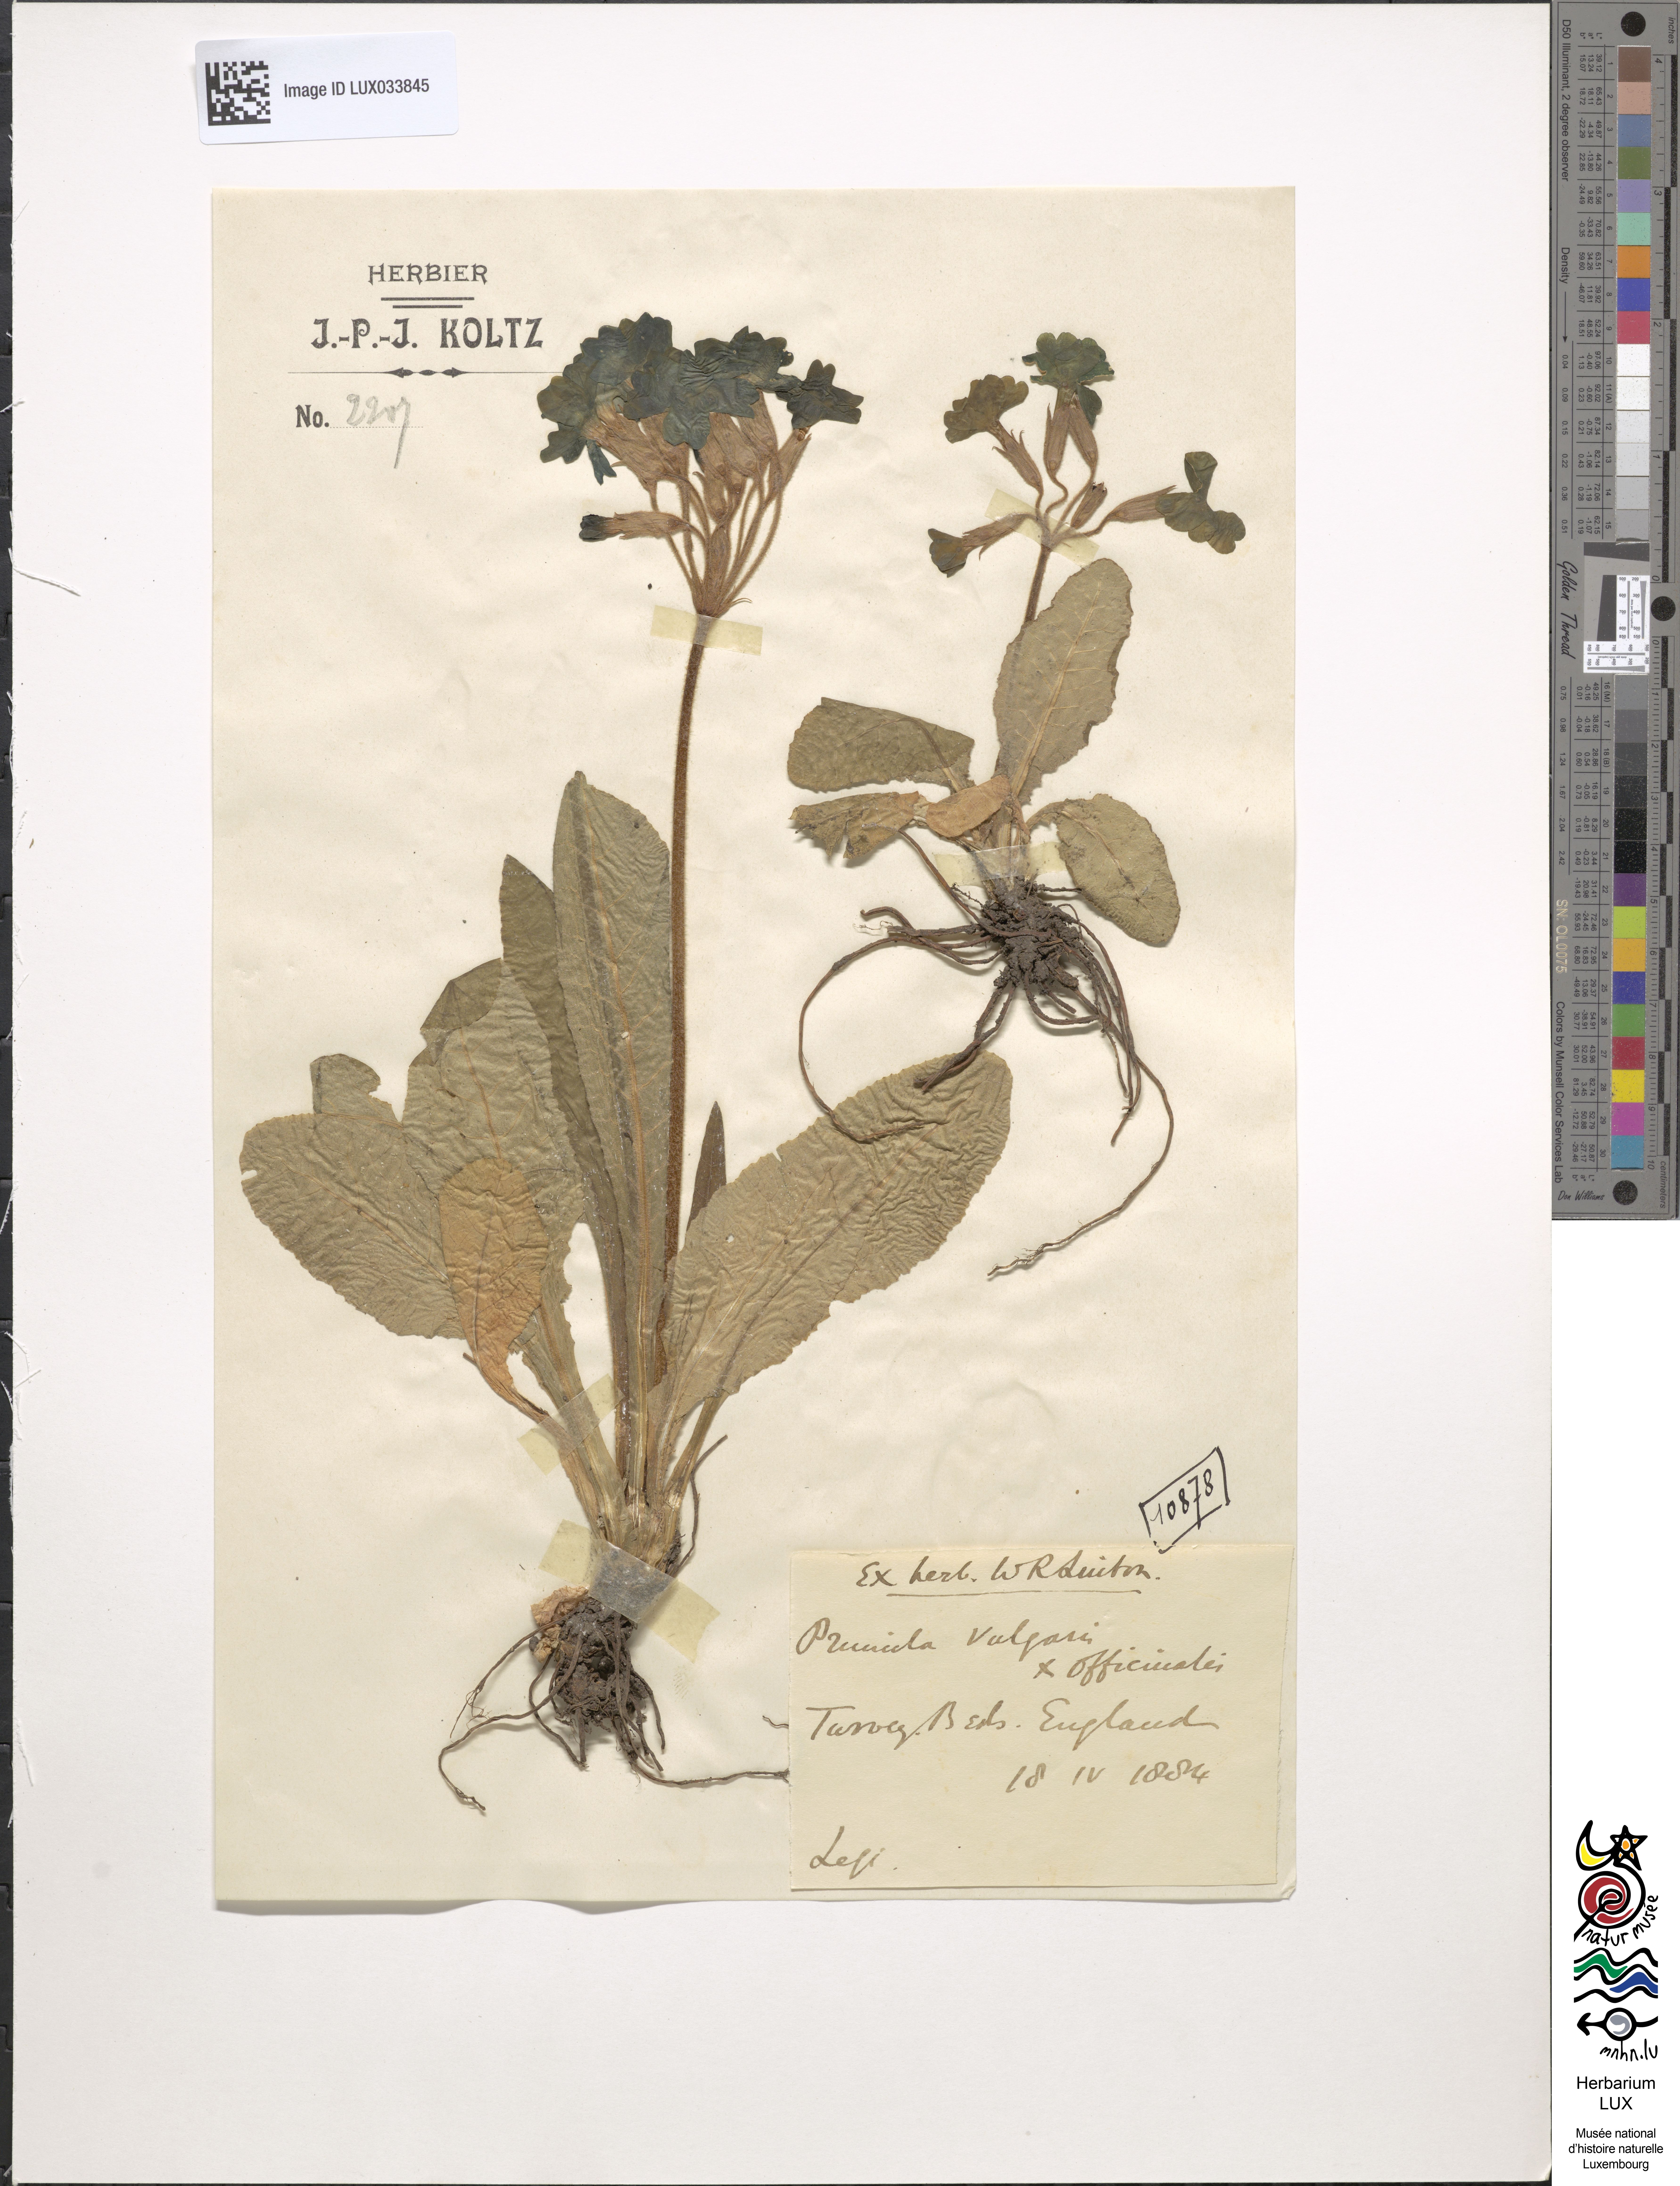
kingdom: Plantae
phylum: Tracheophyta
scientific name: Tracheophyta
